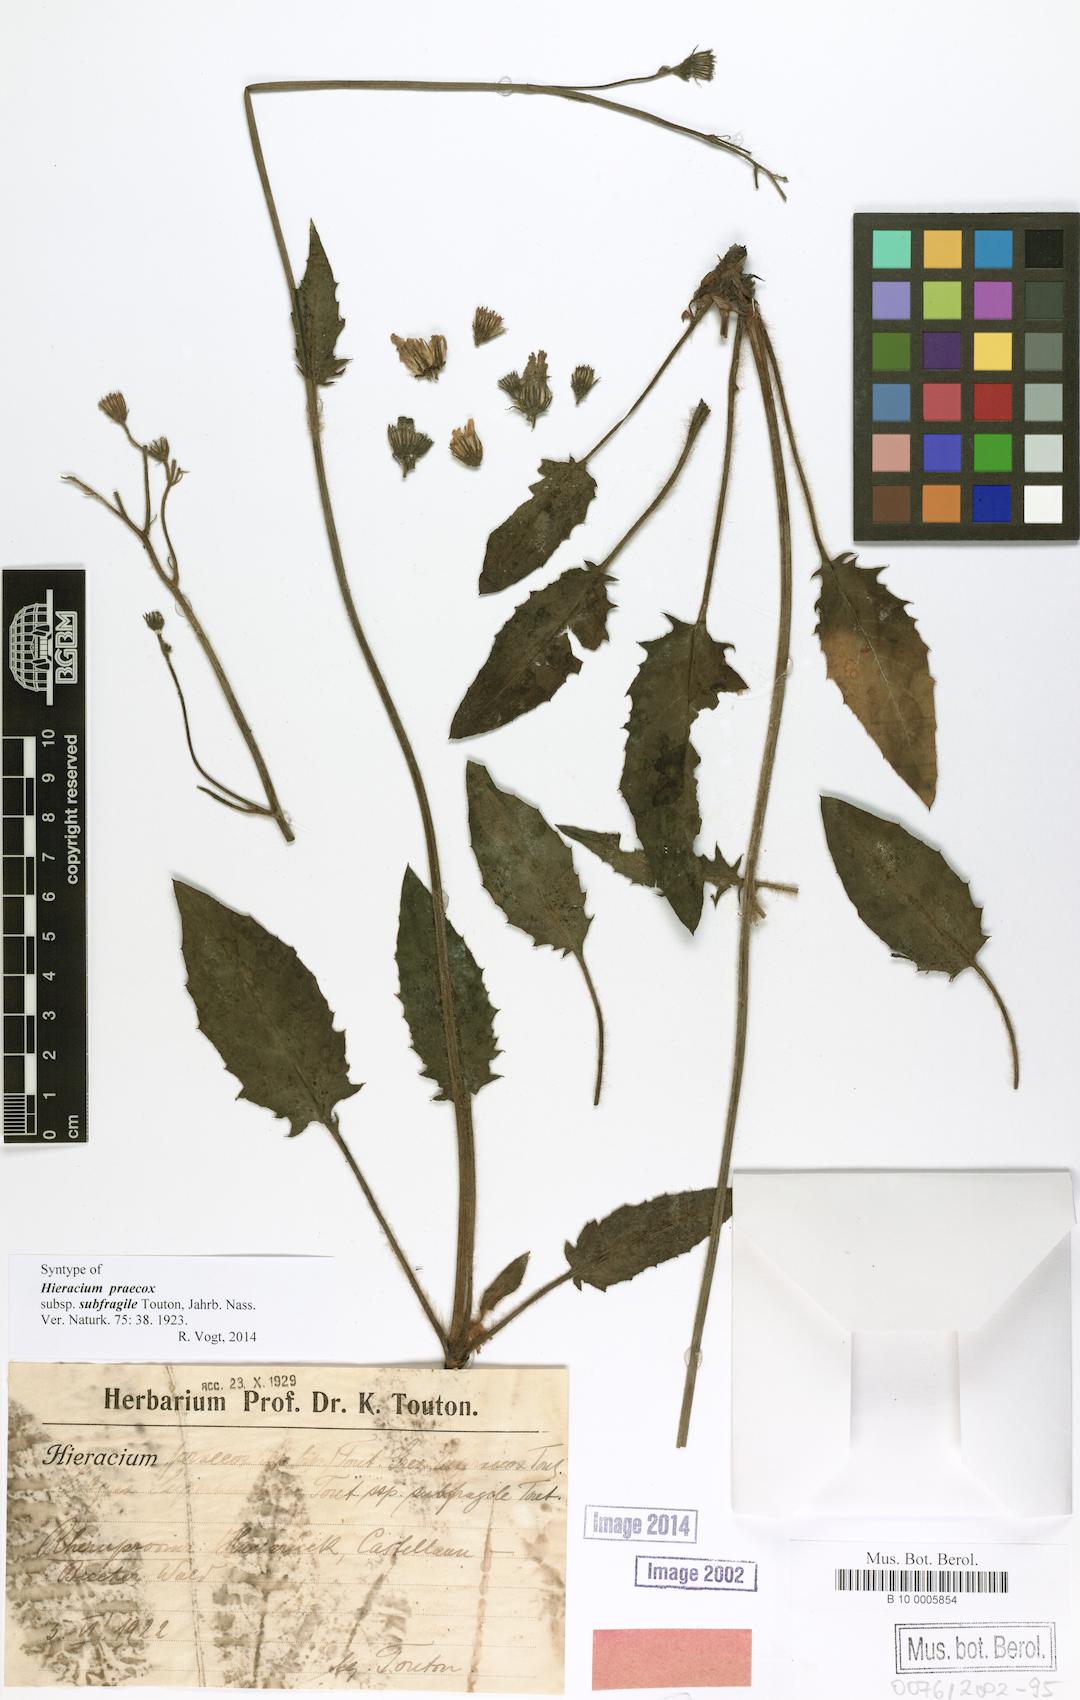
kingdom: Plantae
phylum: Tracheophyta
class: Magnoliopsida
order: Asterales
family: Asteraceae
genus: Hieracium
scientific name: Hieracium glaucinum
